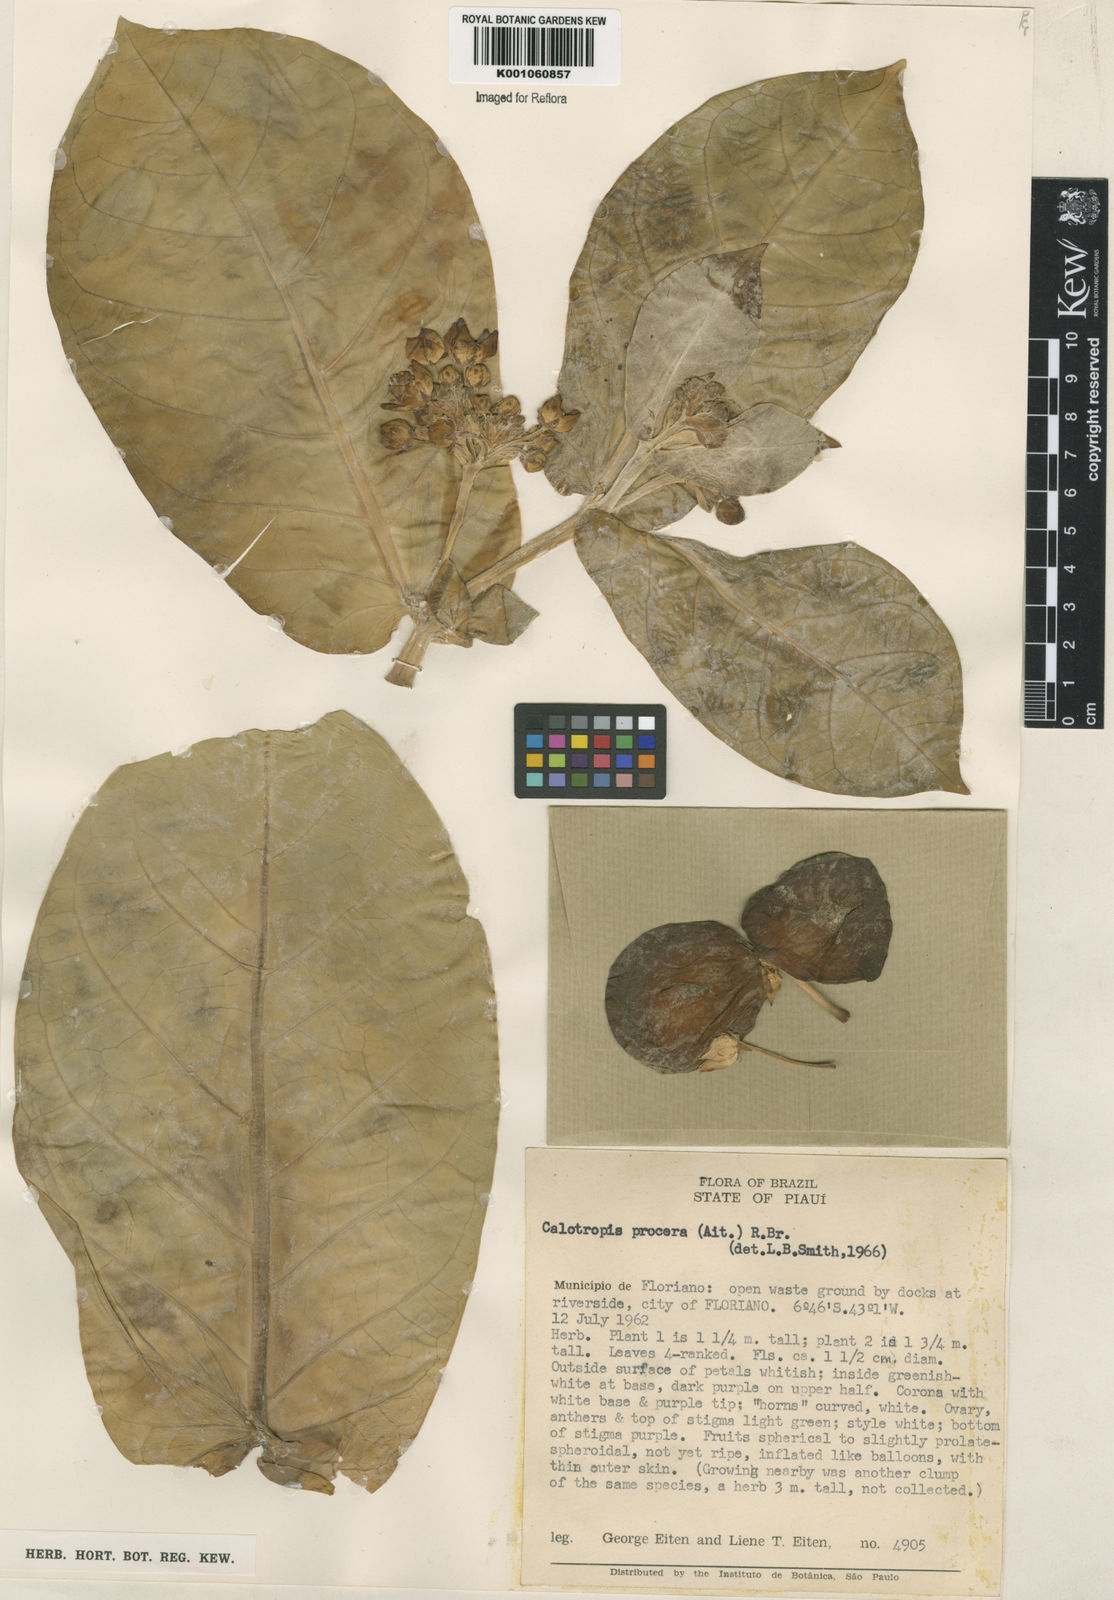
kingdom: Plantae
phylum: Tracheophyta
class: Magnoliopsida
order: Gentianales
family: Apocynaceae
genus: Calotropis
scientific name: Calotropis procera
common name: Roostertree
